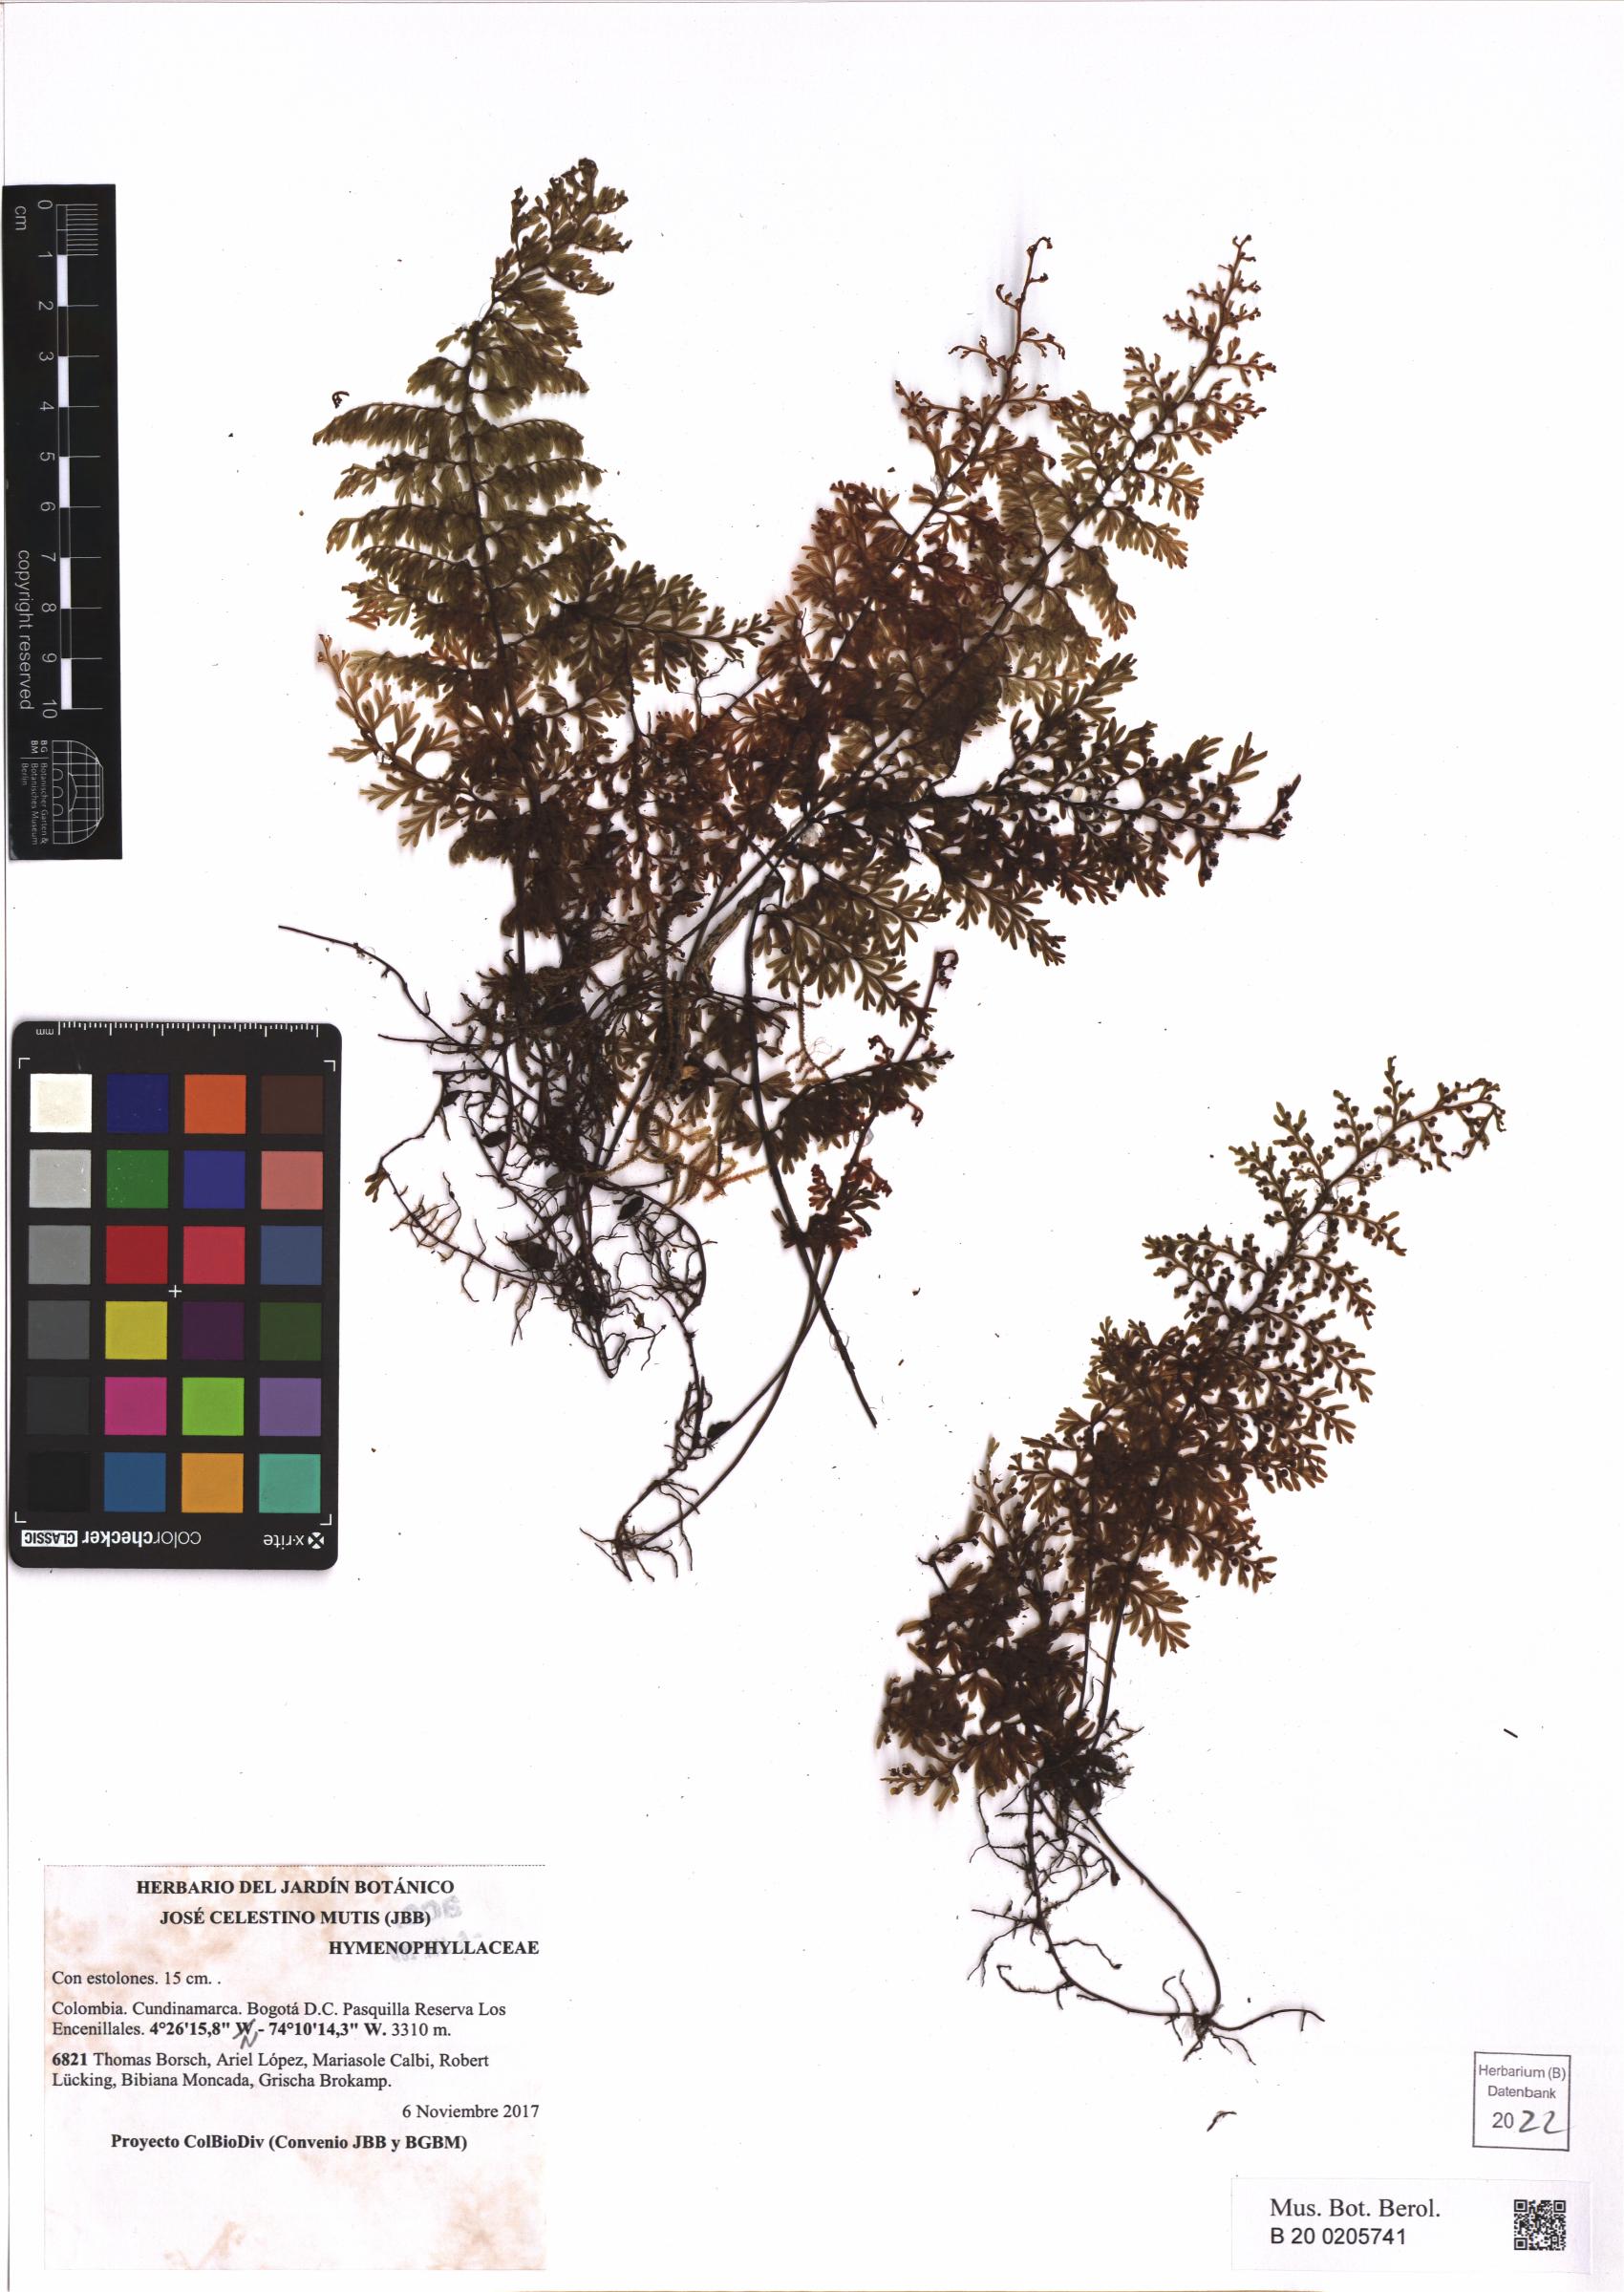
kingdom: Plantae
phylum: Tracheophyta
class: Polypodiopsida
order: Hymenophyllales
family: Hymenophyllaceae
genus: Hymenophyllum
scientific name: Hymenophyllum andinum
